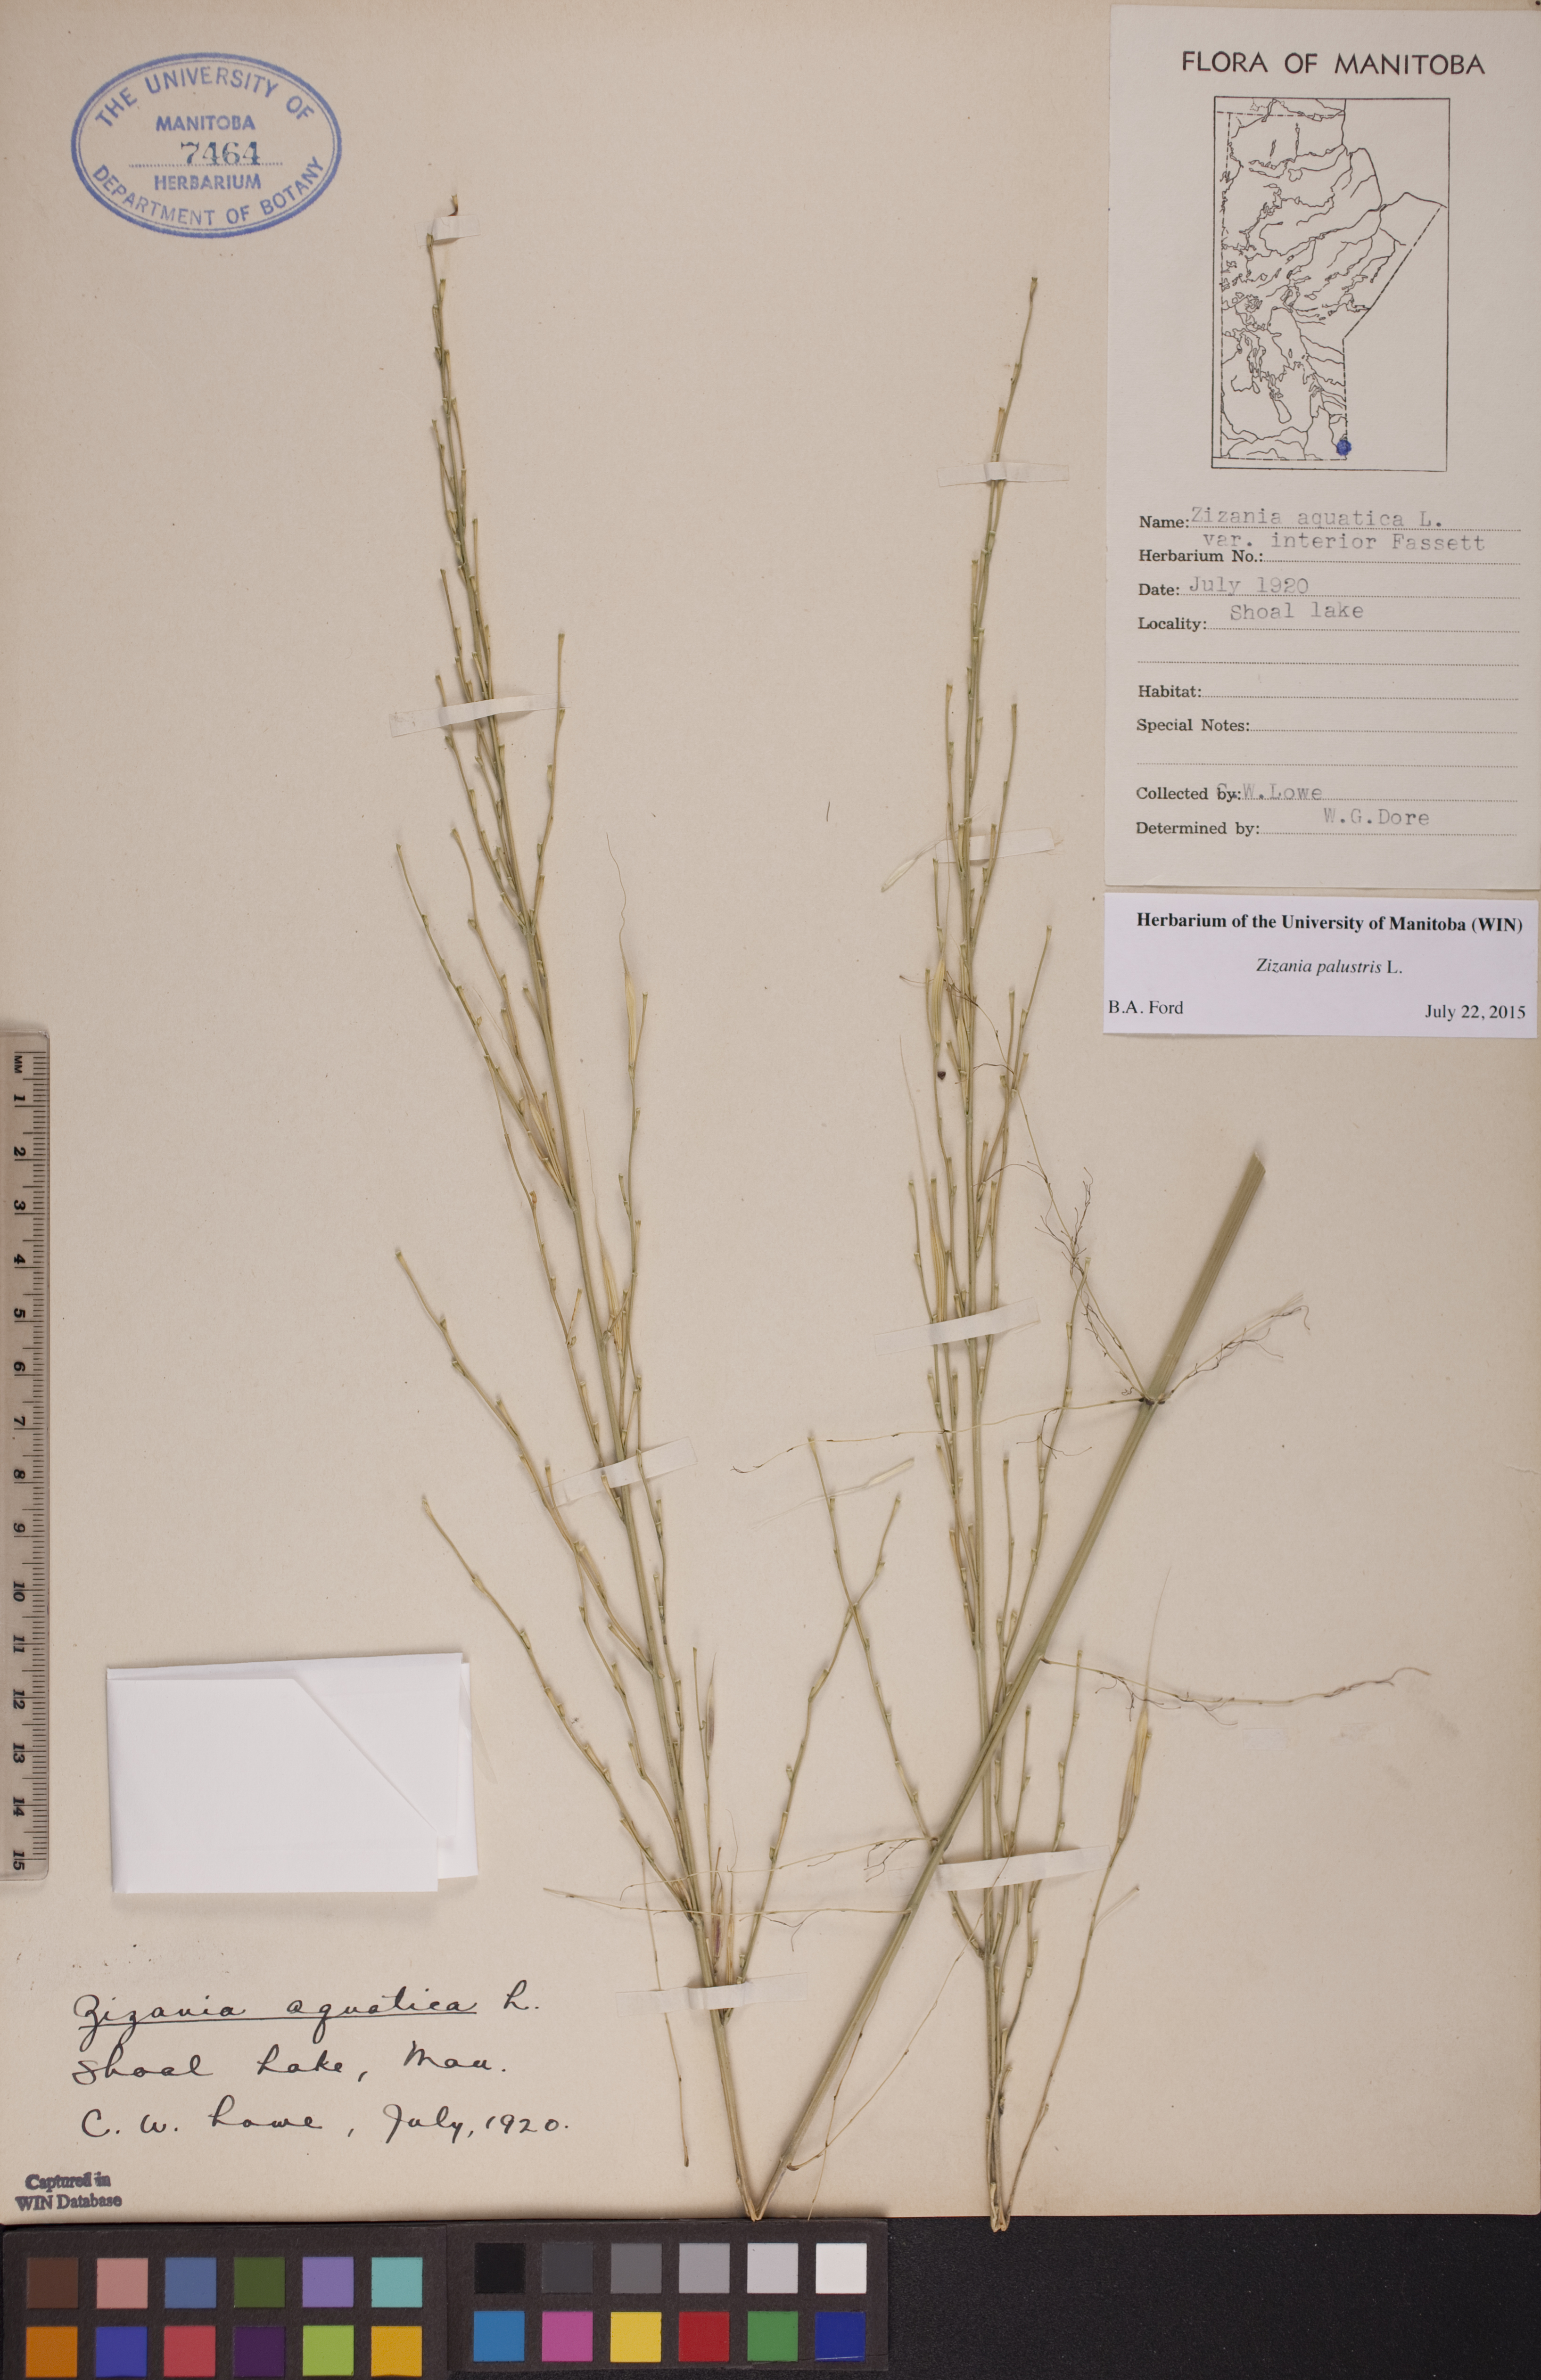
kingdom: Plantae
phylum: Tracheophyta
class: Liliopsida
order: Poales
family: Poaceae
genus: Zizania
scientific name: Zizania palustris
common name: Northern wild rice
